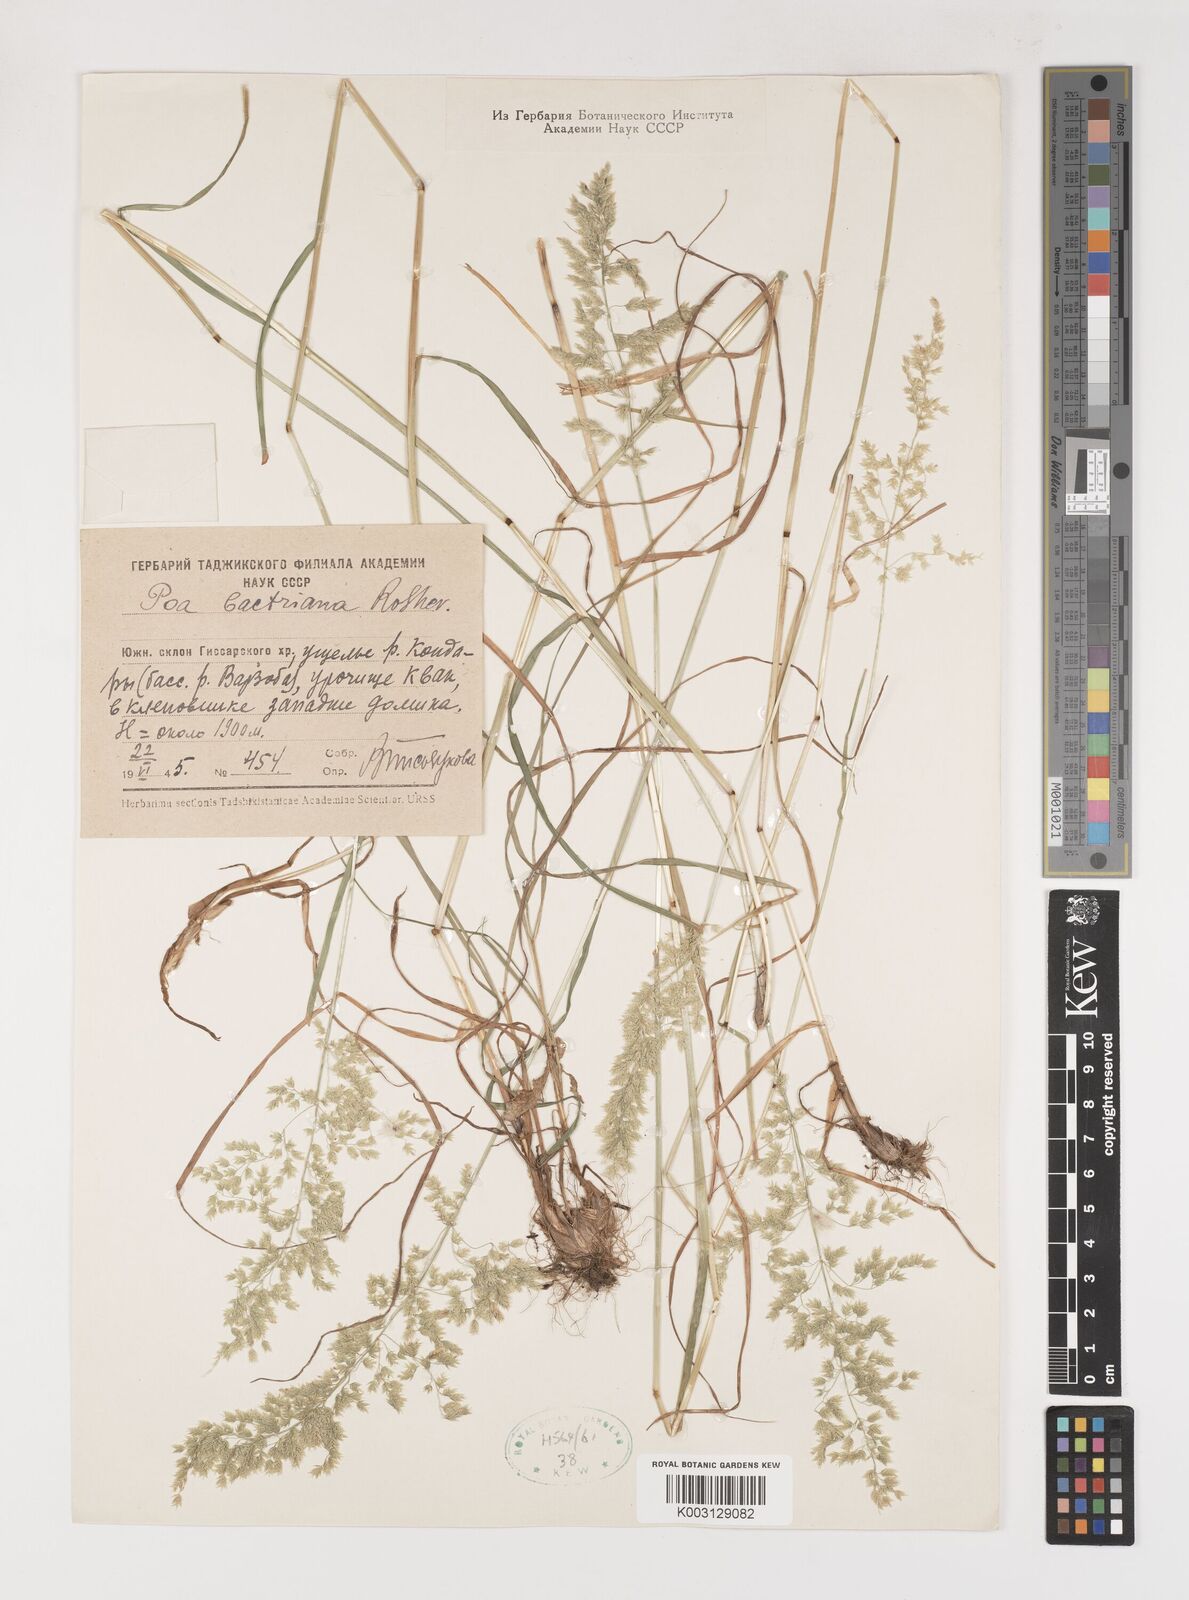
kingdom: Plantae
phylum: Tracheophyta
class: Liliopsida
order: Poales
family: Poaceae
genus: Poa
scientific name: Poa
